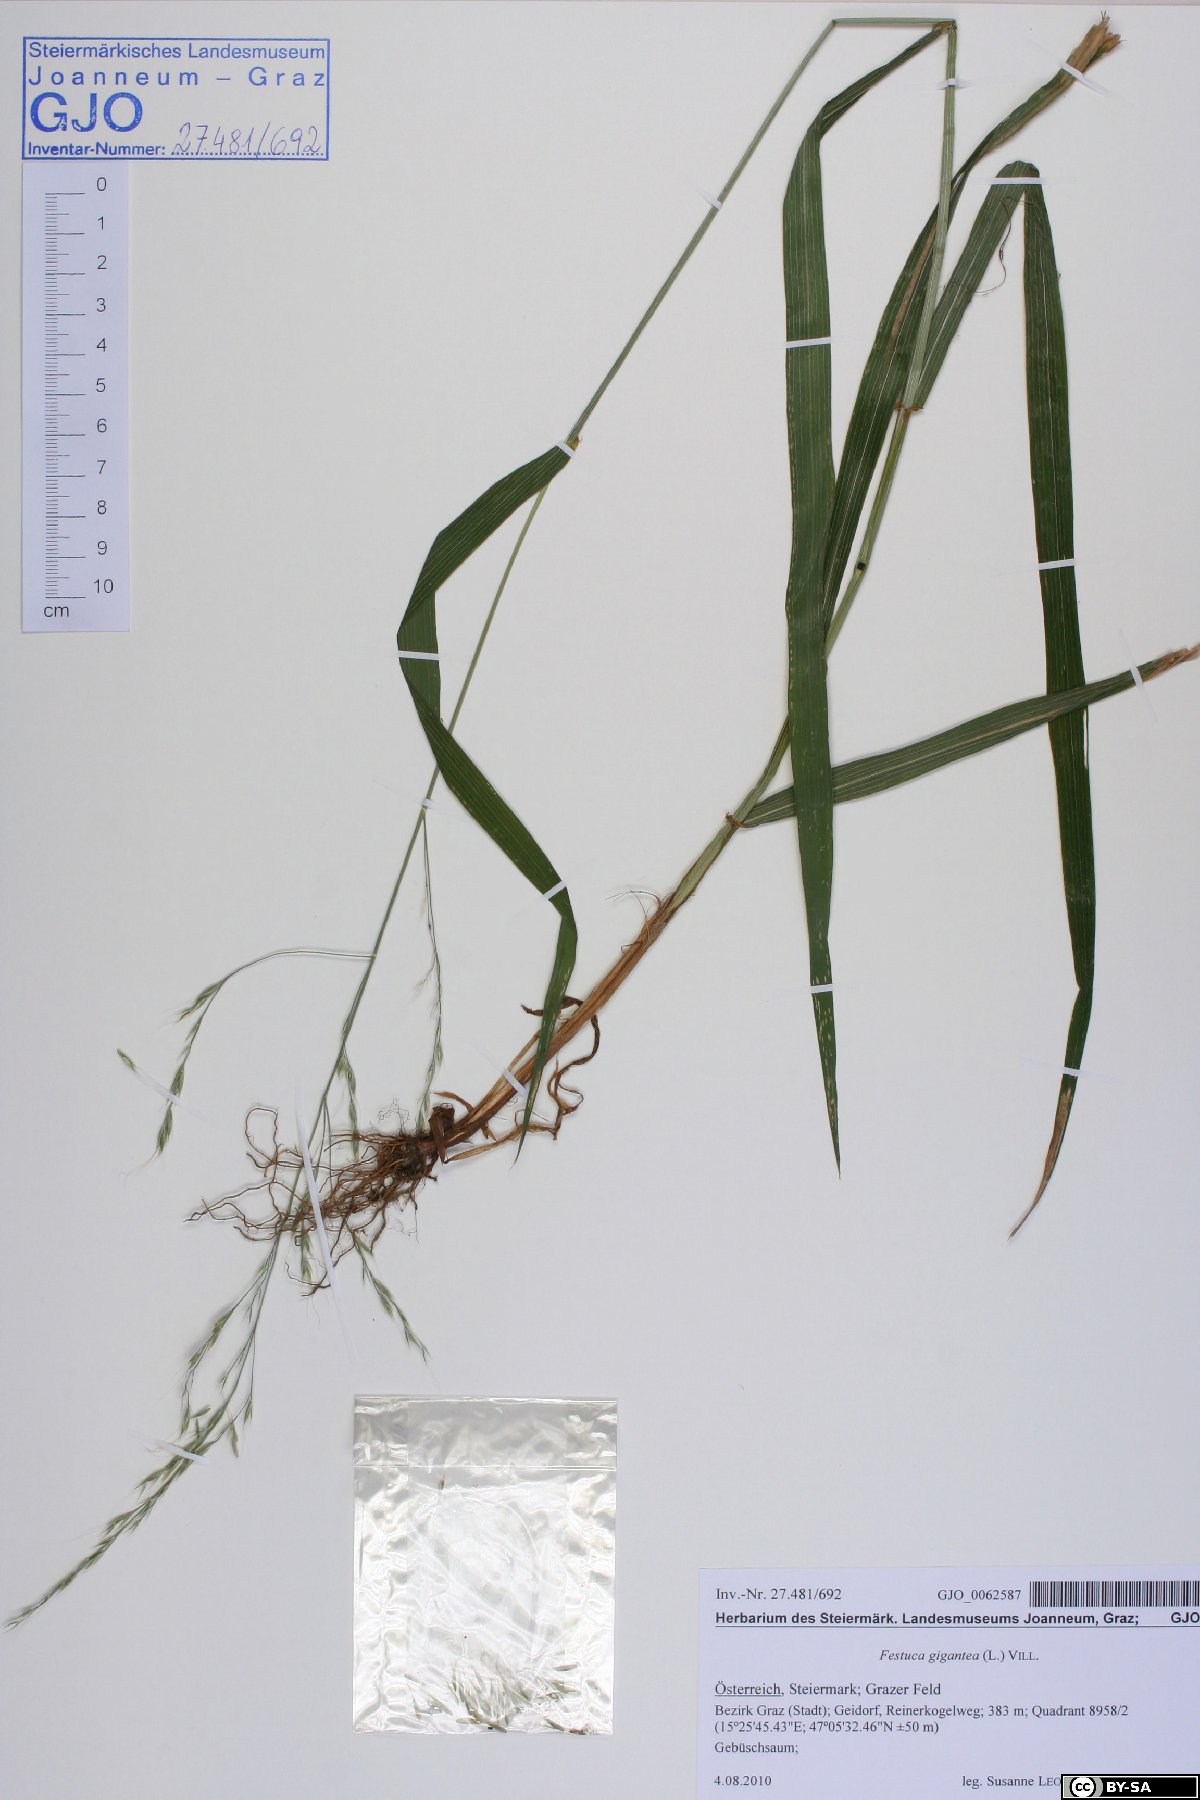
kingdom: Plantae
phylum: Tracheophyta
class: Liliopsida
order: Poales
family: Poaceae
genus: Lolium
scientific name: Lolium giganteum
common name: Giant fescue
